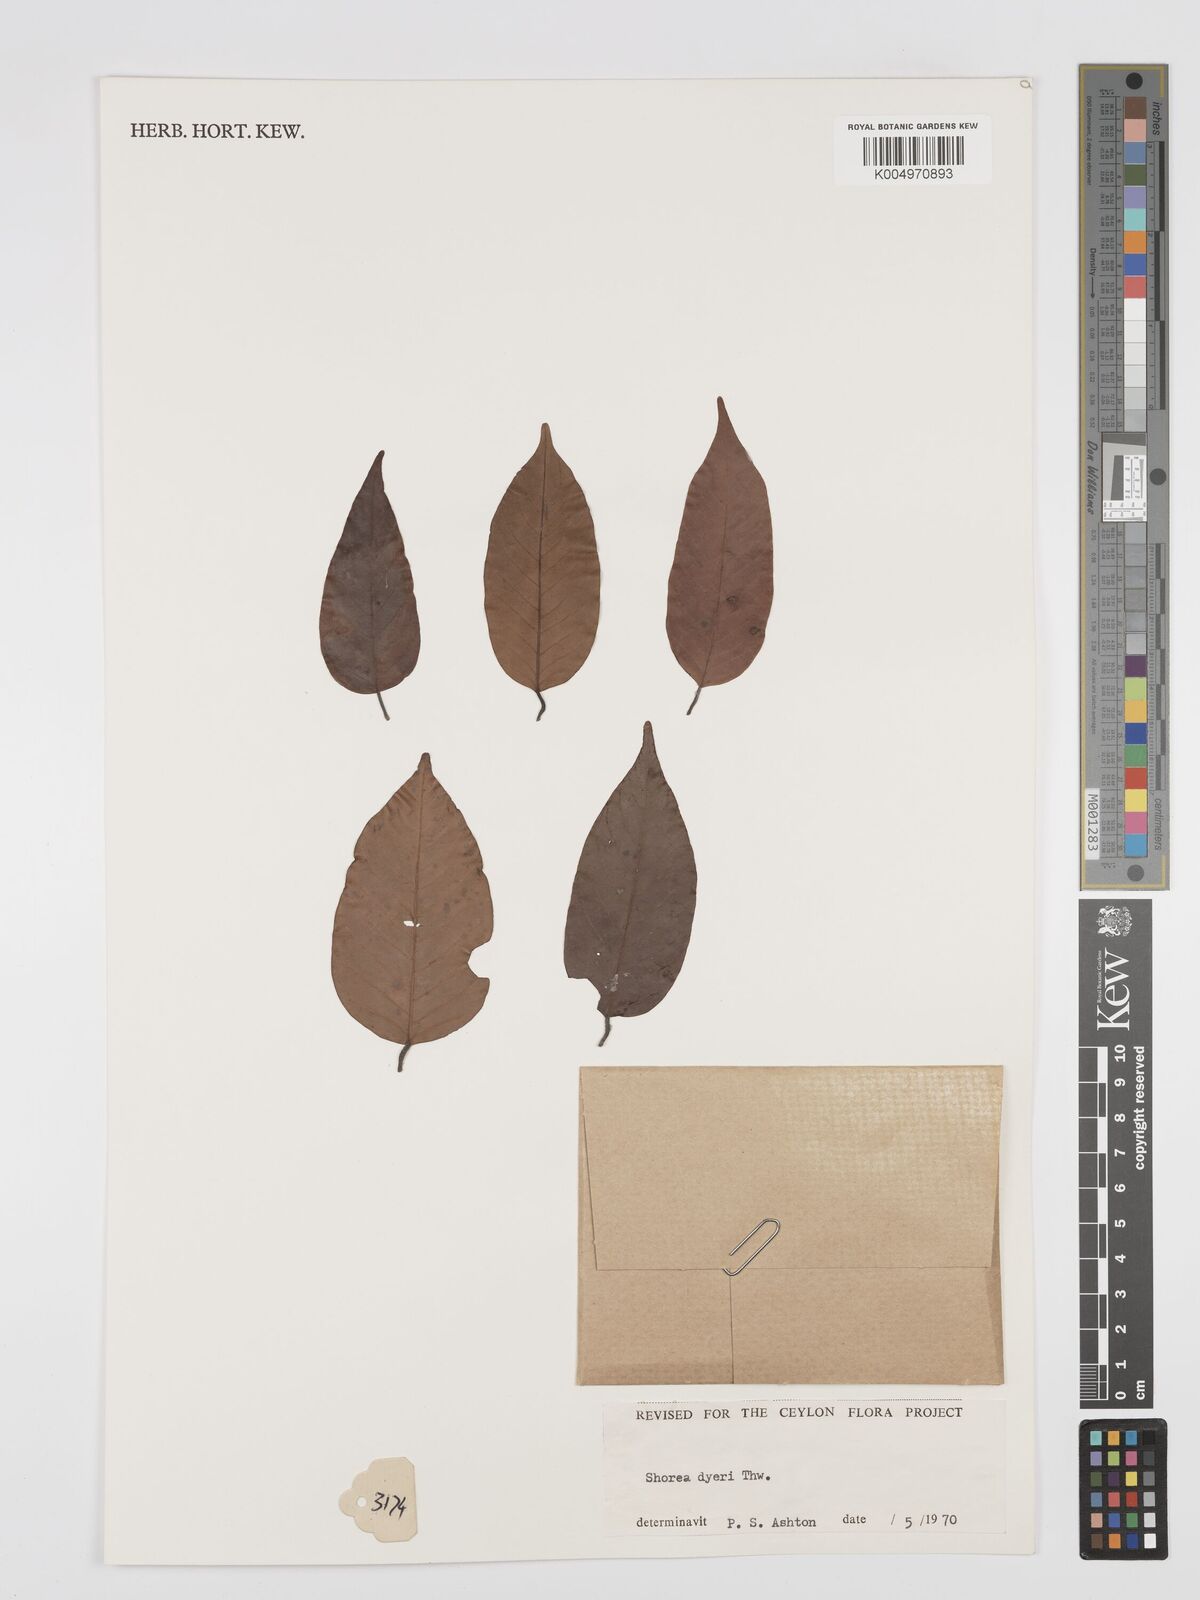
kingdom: Plantae
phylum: Tracheophyta
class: Magnoliopsida
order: Malvales
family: Dipterocarpaceae
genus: Shorea
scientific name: Shorea dyeri
